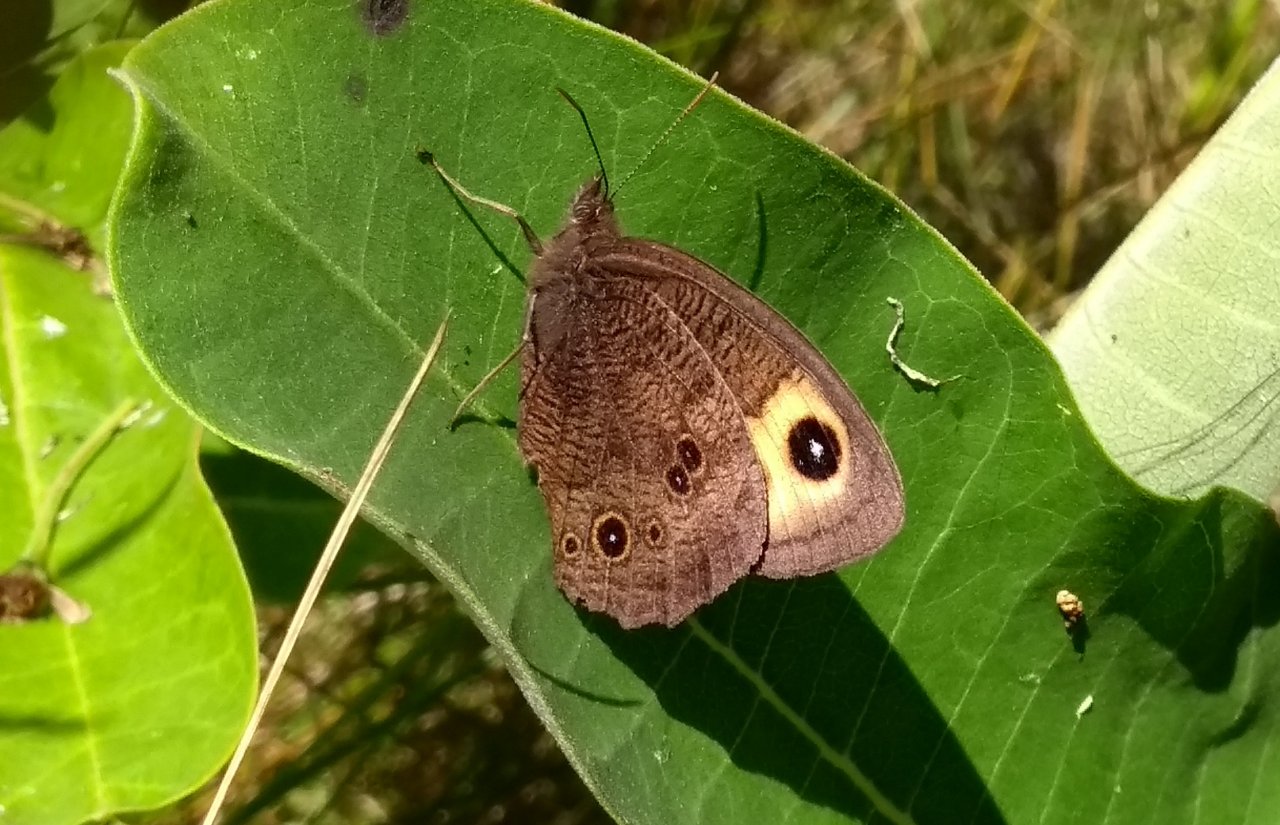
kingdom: Animalia
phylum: Arthropoda
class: Insecta
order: Lepidoptera
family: Nymphalidae
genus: Cercyonis
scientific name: Cercyonis pegala
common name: Common Wood-Nymph
